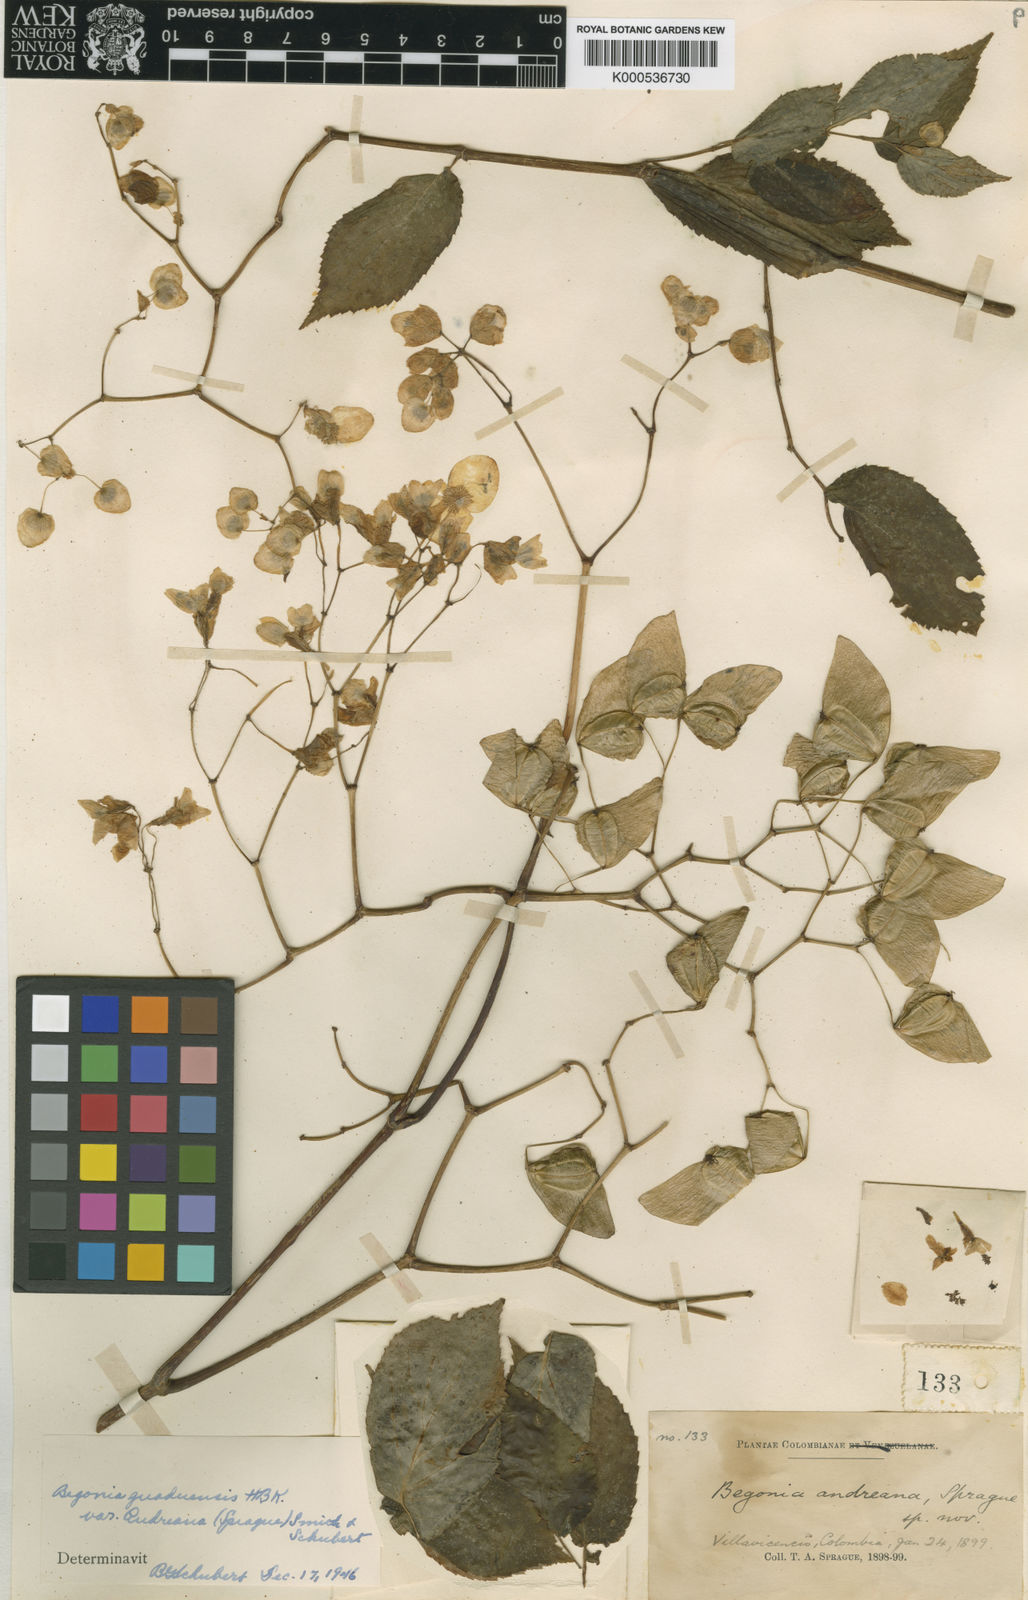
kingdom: Plantae
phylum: Tracheophyta
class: Magnoliopsida
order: Cucurbitales
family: Begoniaceae
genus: Begonia
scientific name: Begonia guaduensis
